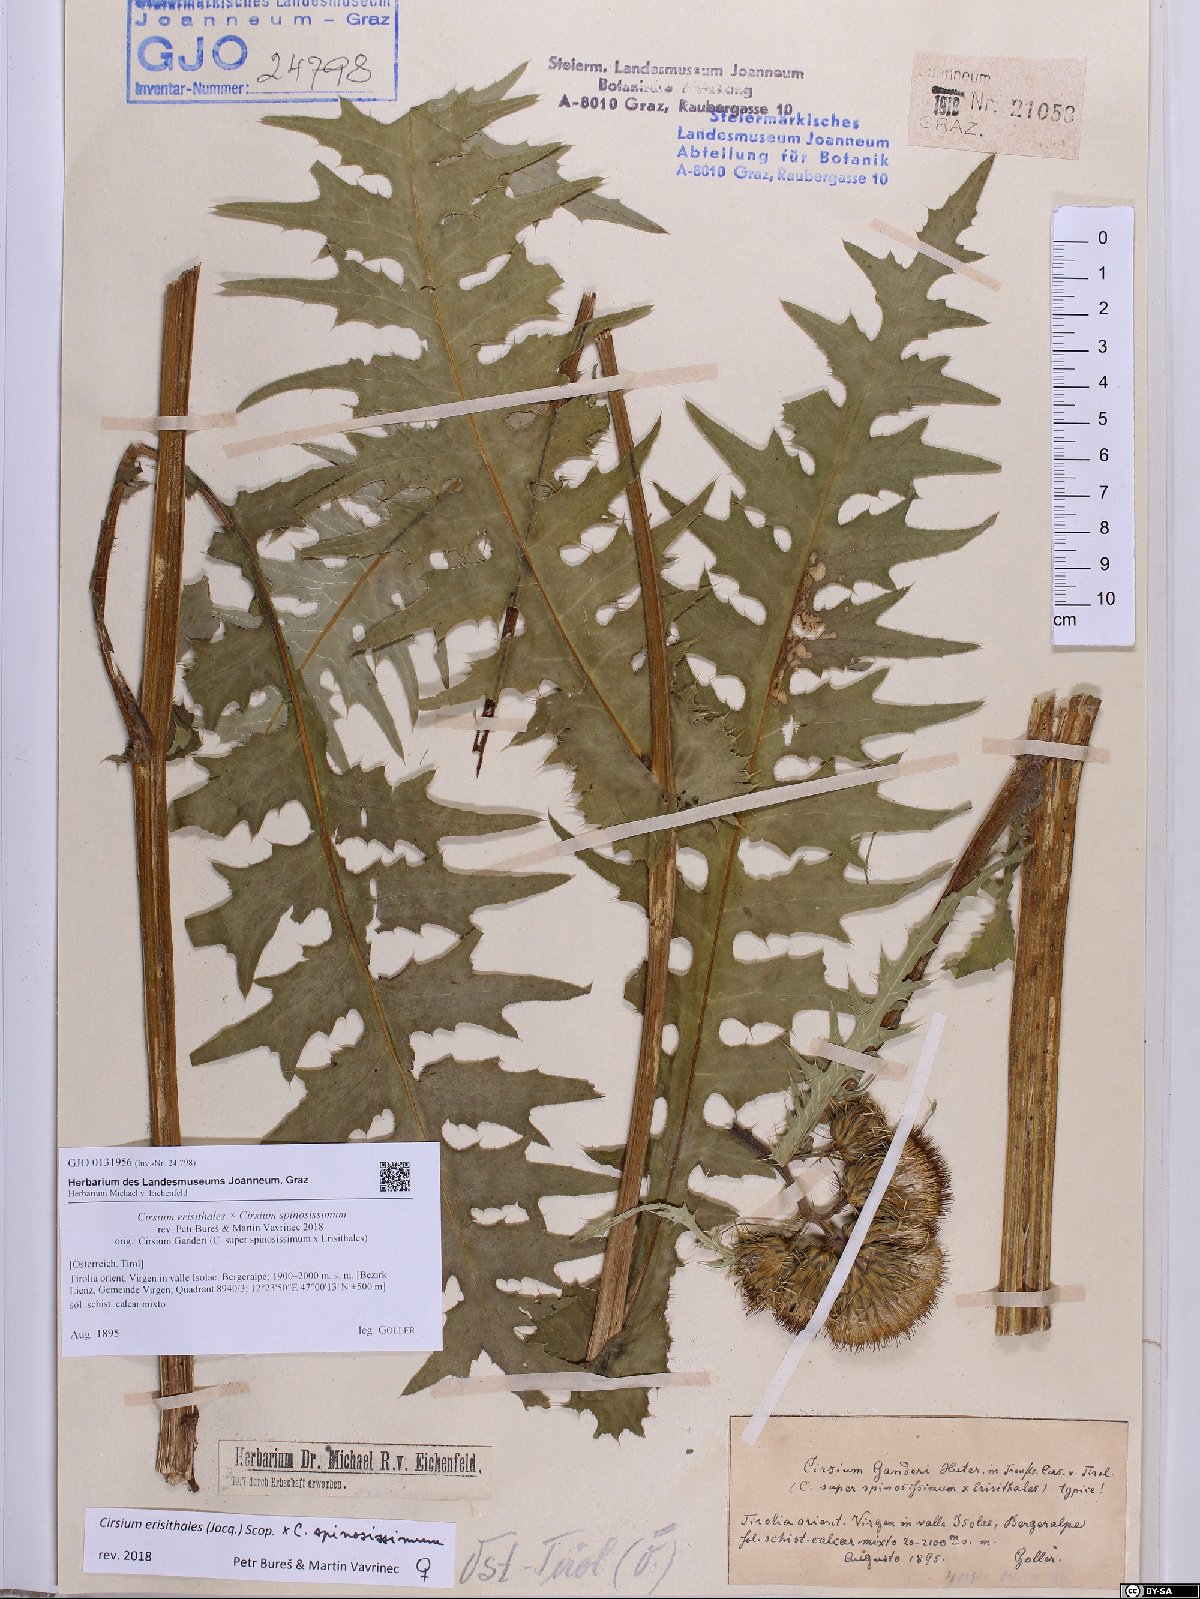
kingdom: Plantae
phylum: Tracheophyta
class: Magnoliopsida
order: Asterales
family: Asteraceae
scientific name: Asteraceae
